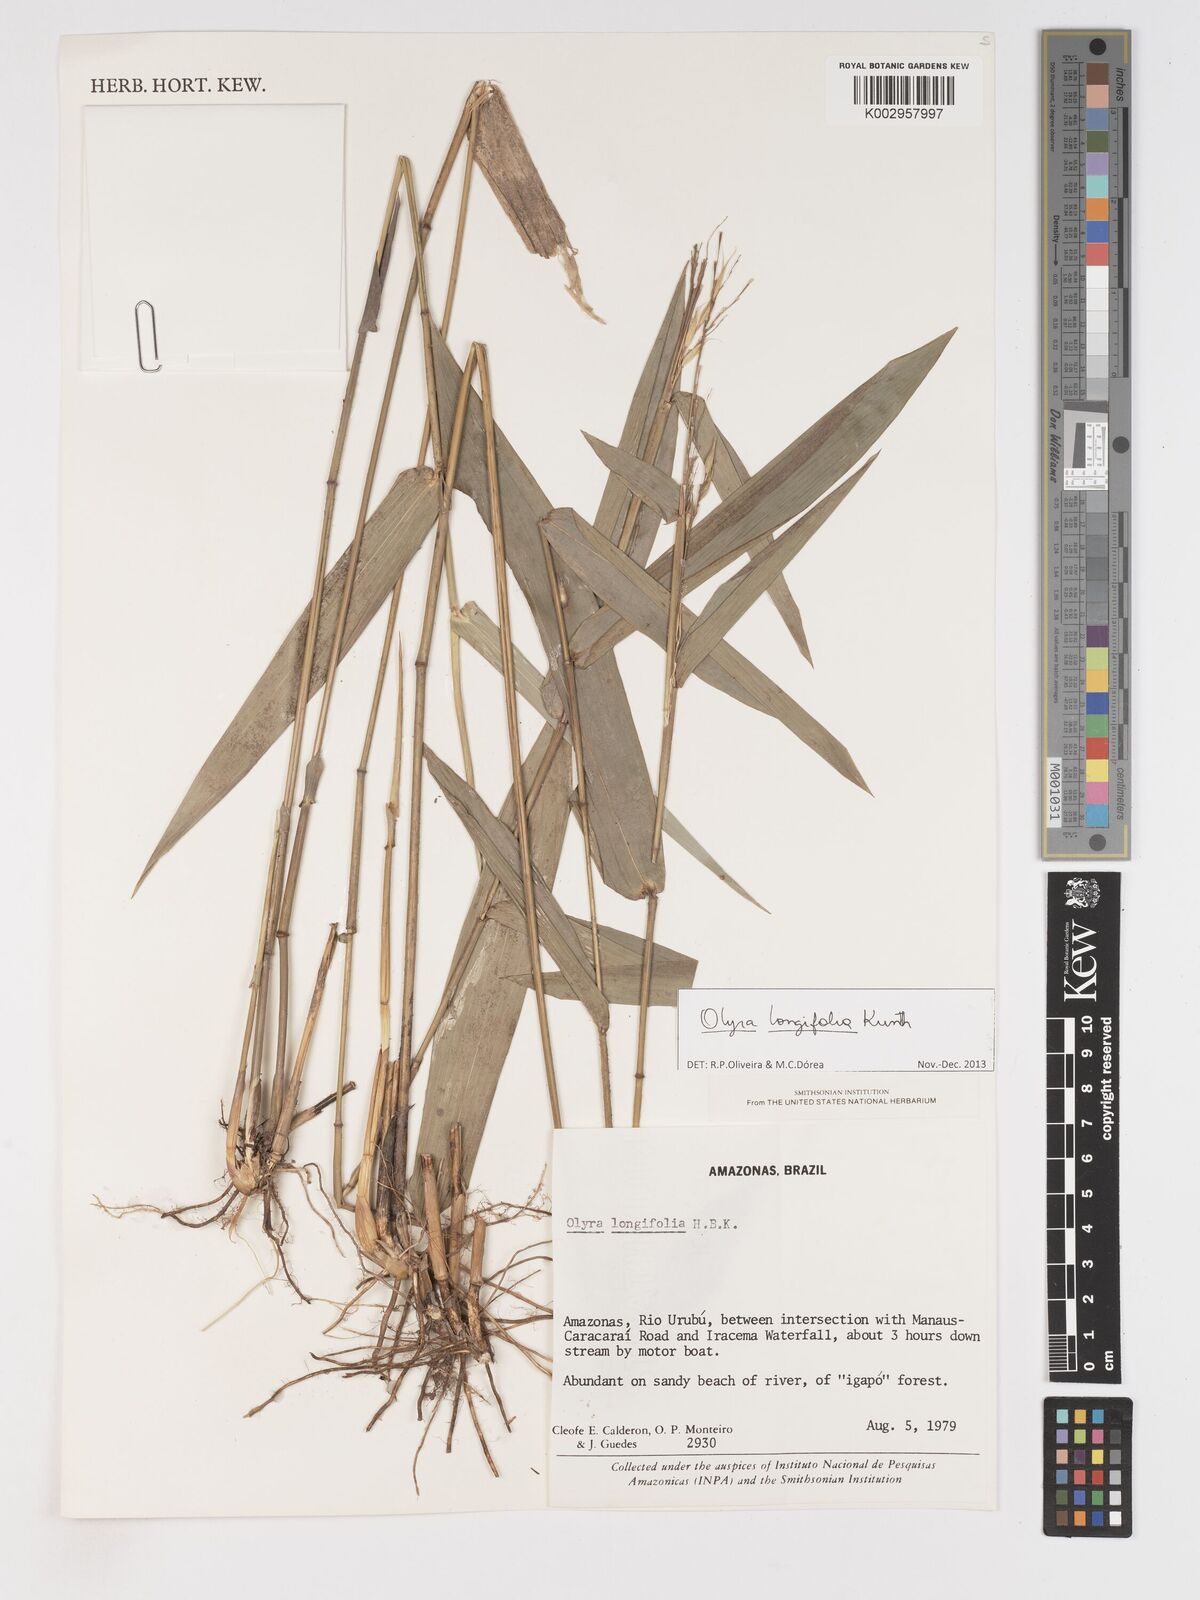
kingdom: Plantae
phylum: Tracheophyta
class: Liliopsida
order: Poales
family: Poaceae
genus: Olyra
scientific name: Olyra longifolia
